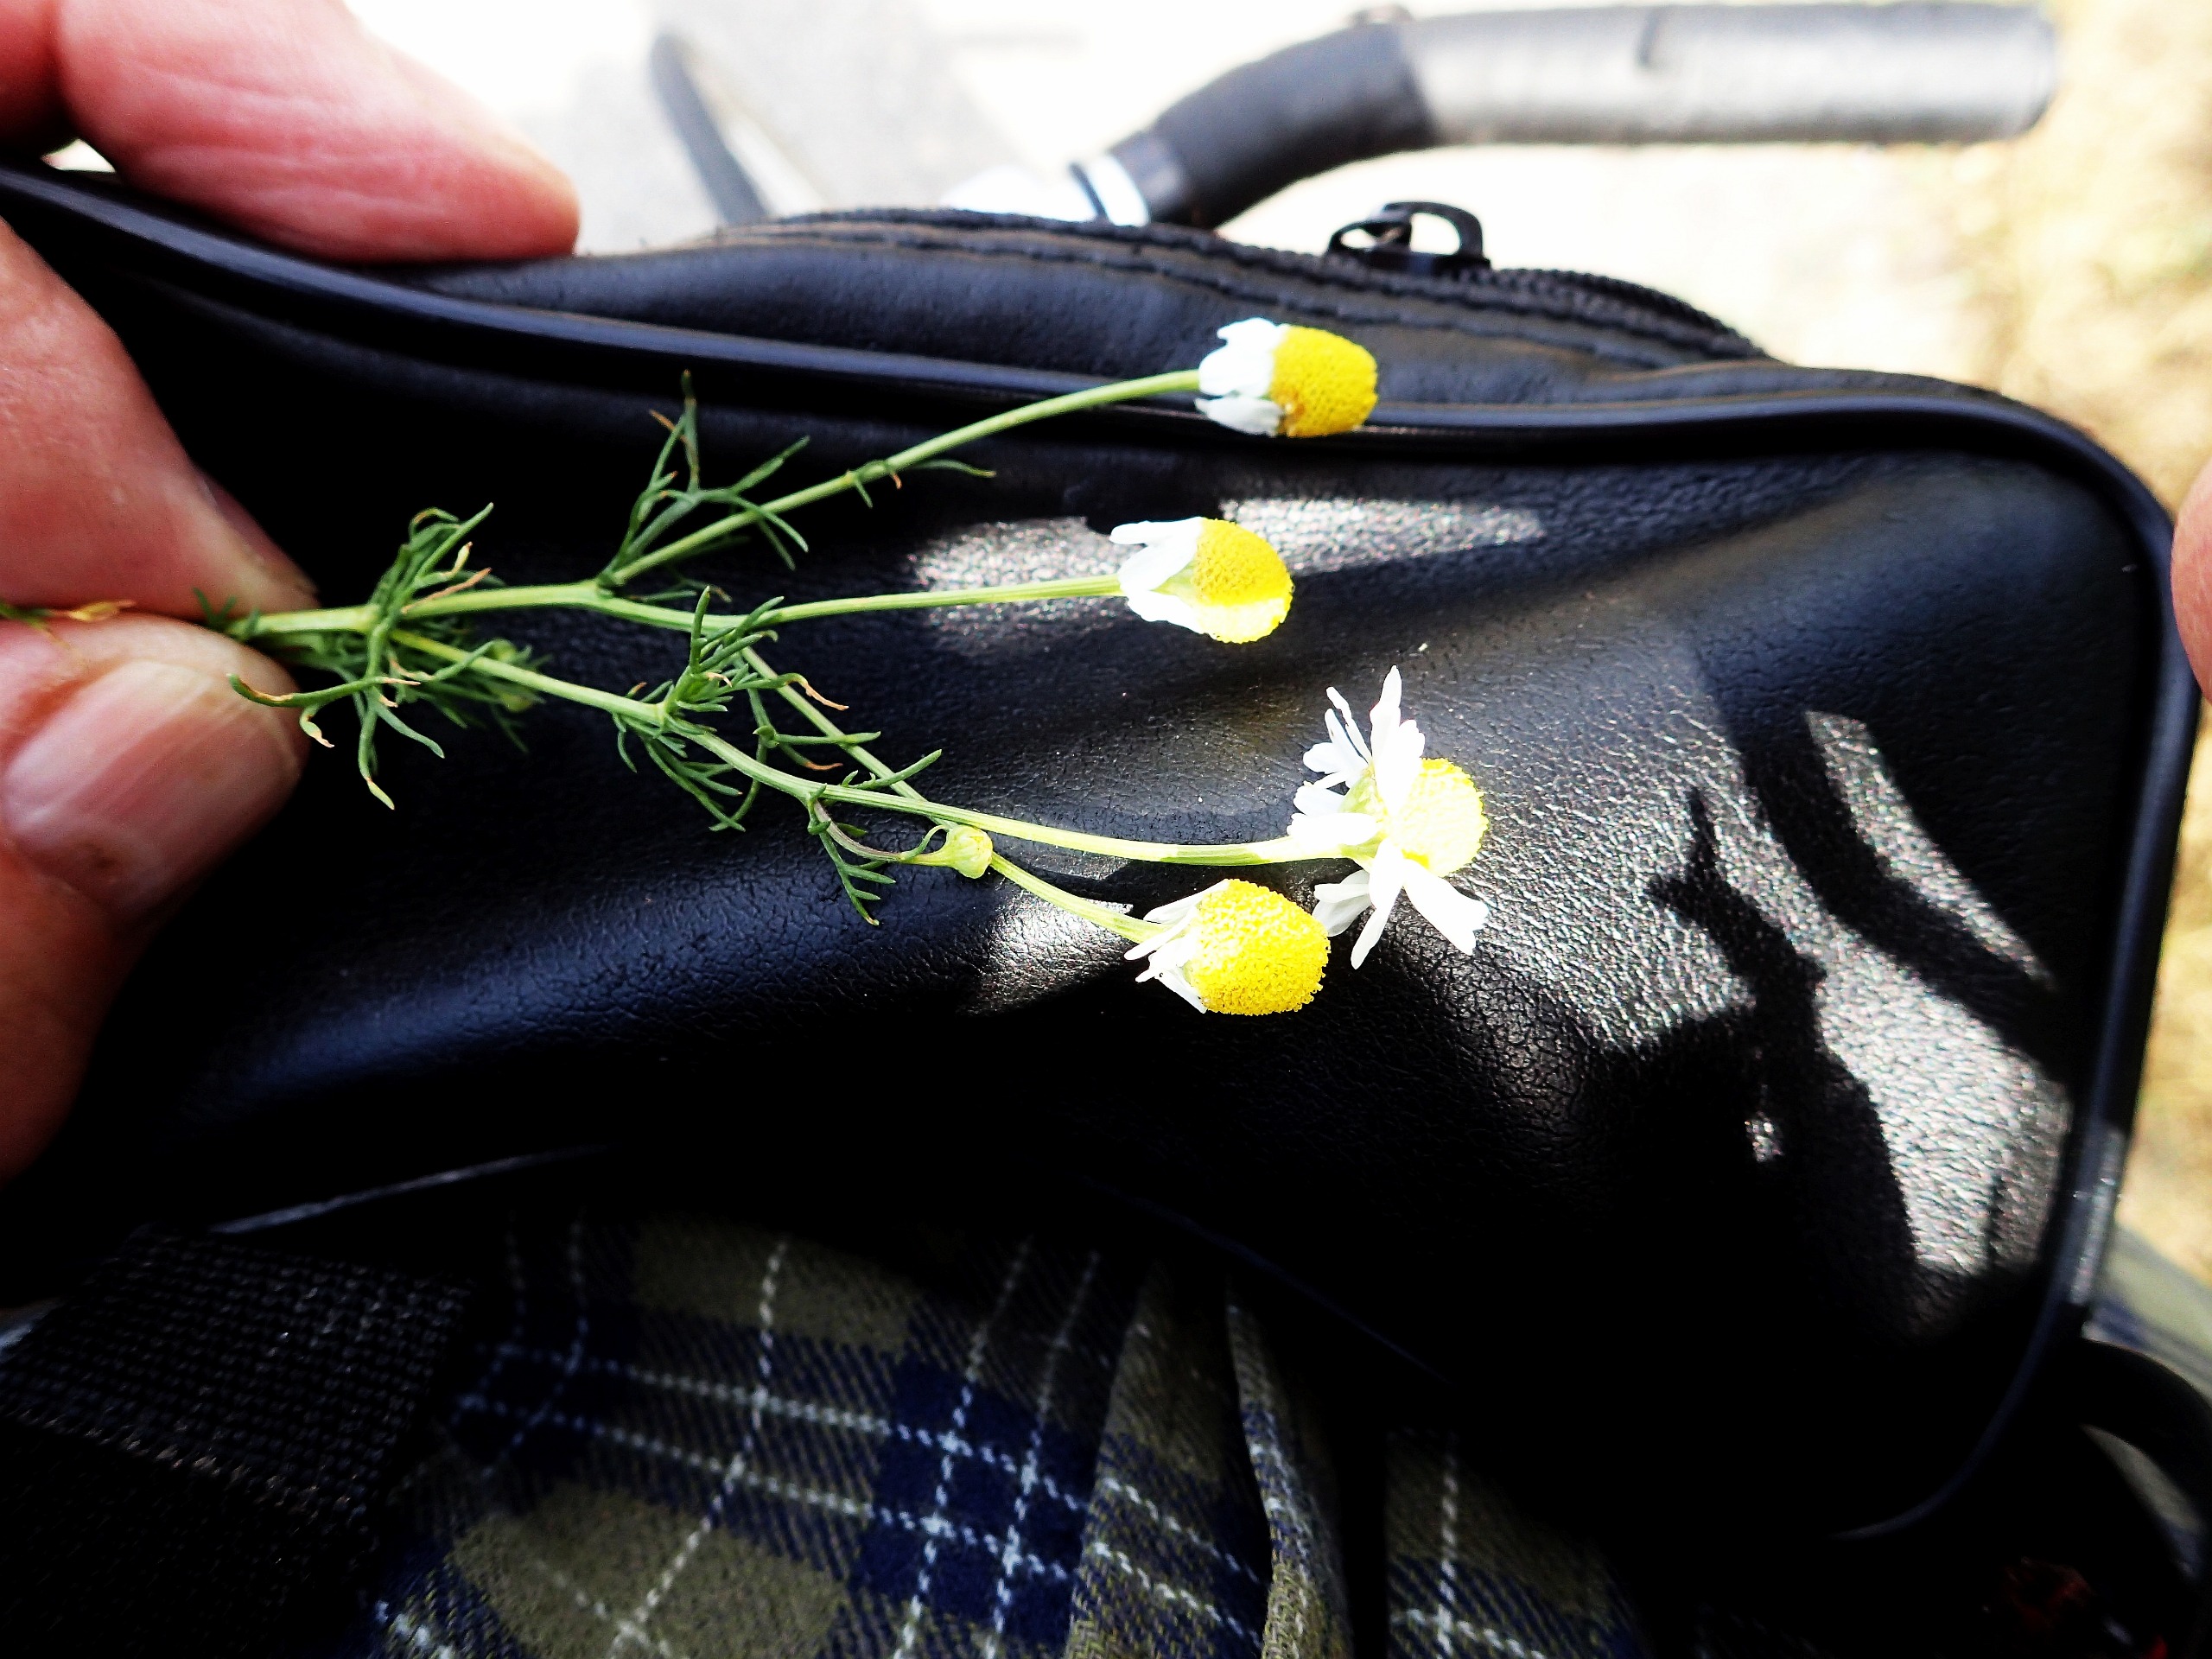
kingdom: Plantae
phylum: Tracheophyta
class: Magnoliopsida
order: Asterales
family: Asteraceae
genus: Matricaria
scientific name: Matricaria chamomilla
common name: Vellugtende kamille
